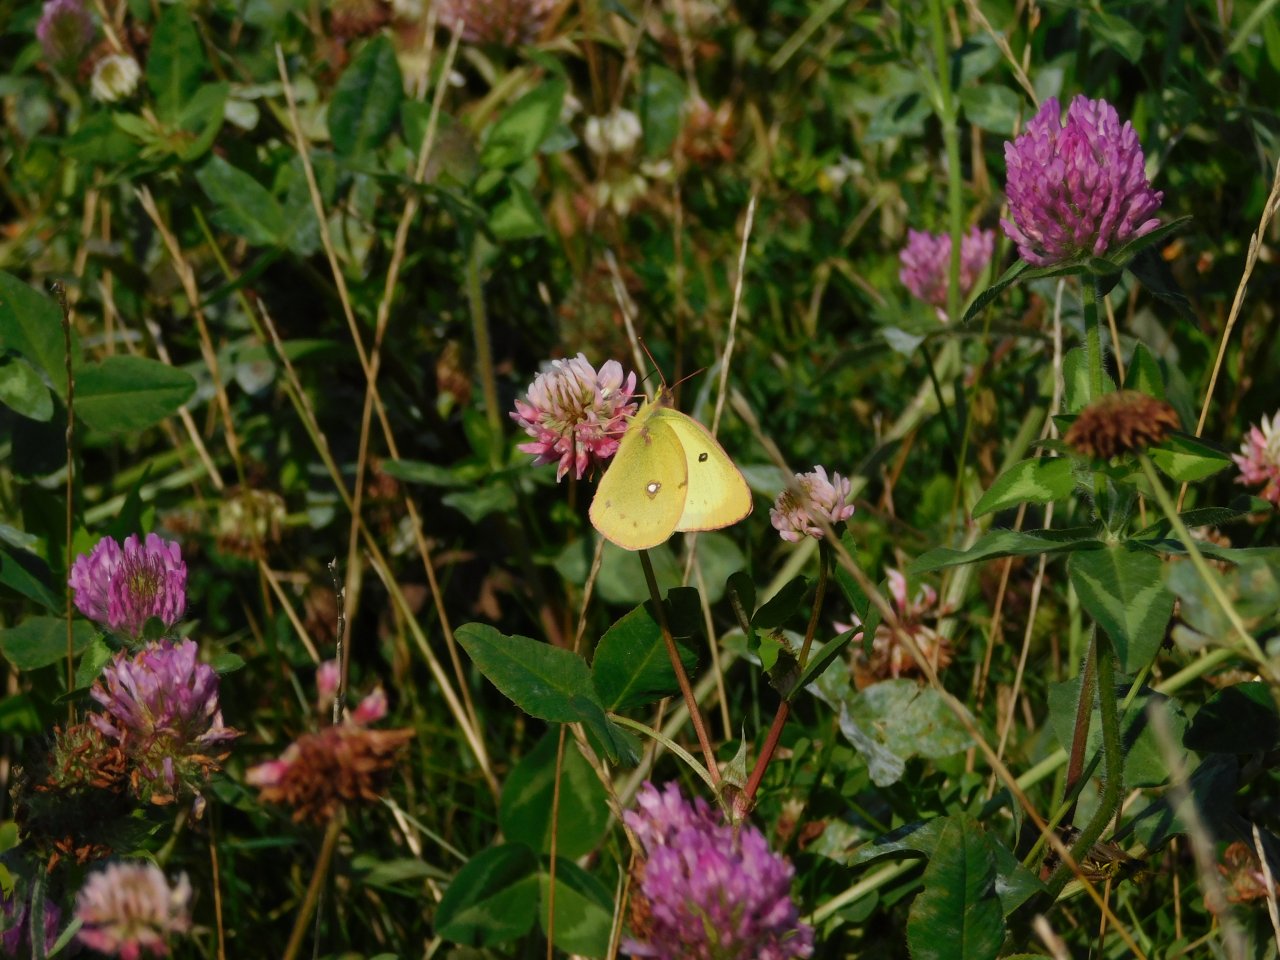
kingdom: Animalia
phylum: Arthropoda
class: Insecta
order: Lepidoptera
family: Pieridae
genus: Colias
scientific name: Colias philodice
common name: Clouded Sulphur
